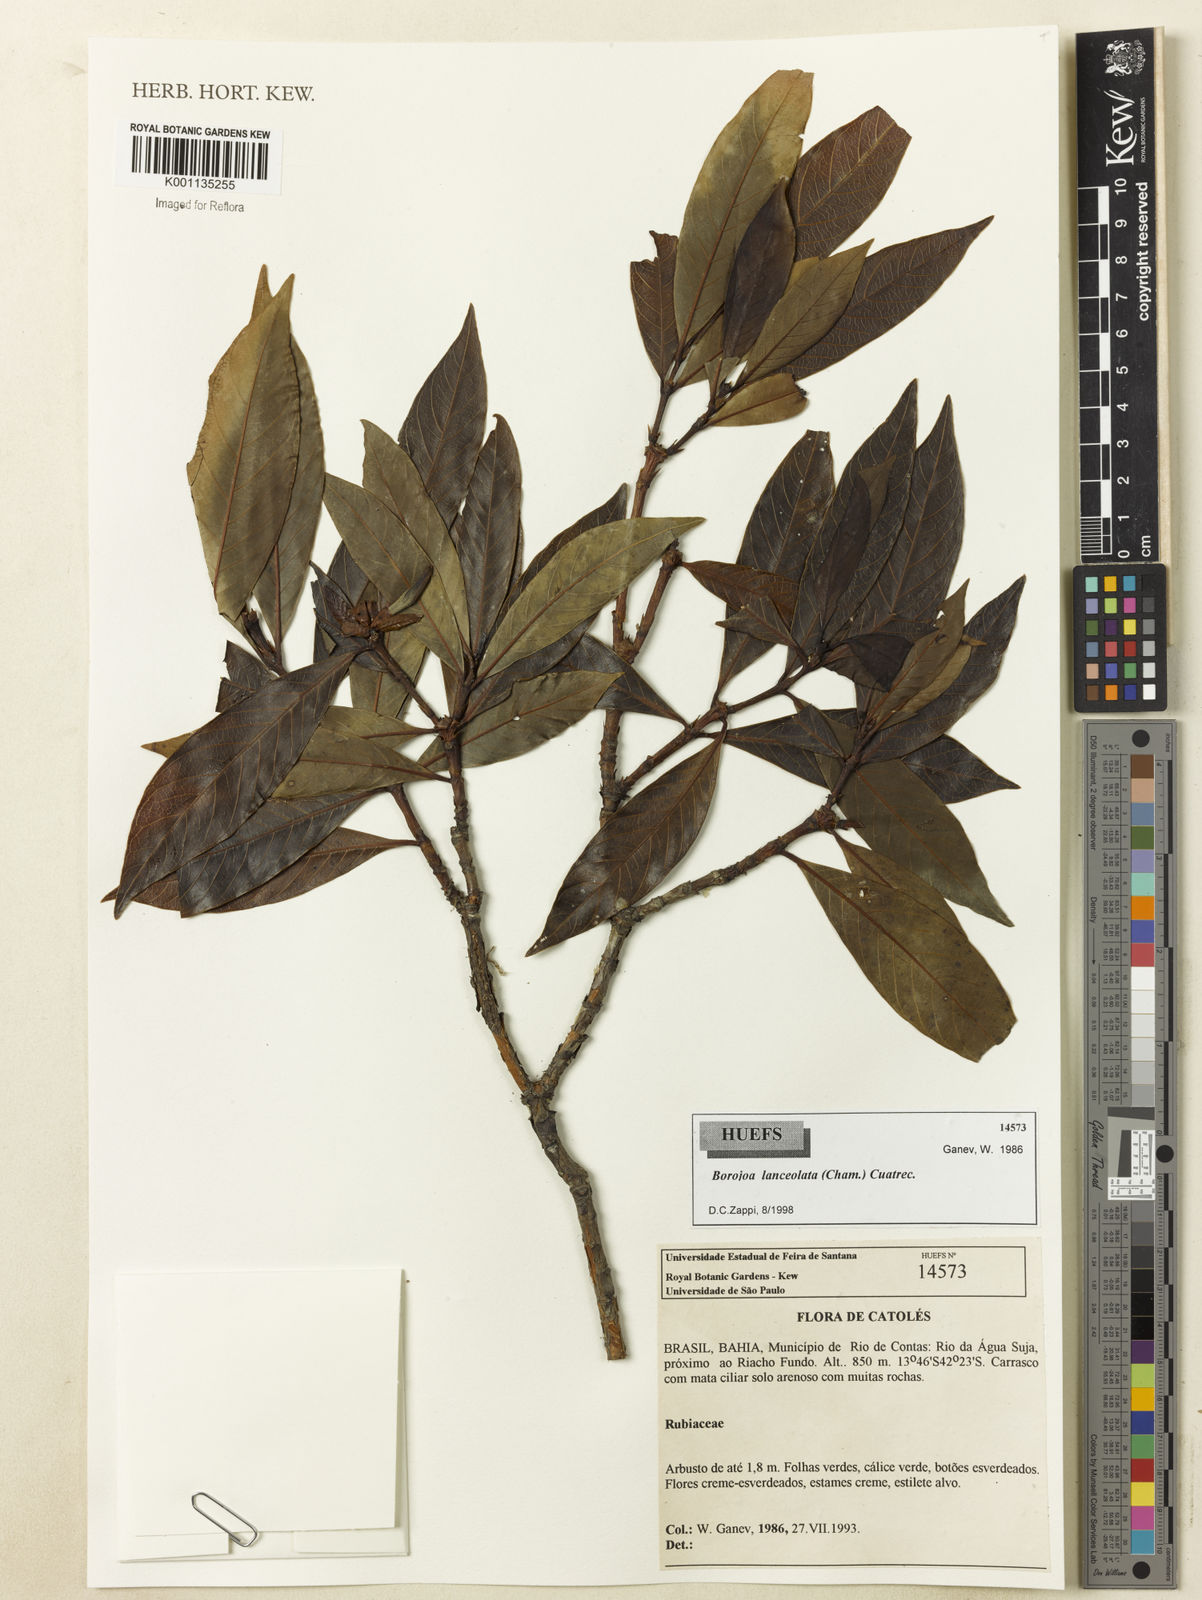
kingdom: Plantae
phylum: Tracheophyta
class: Magnoliopsida
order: Gentianales
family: Rubiaceae
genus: Alibertia
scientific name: Alibertia edulis
